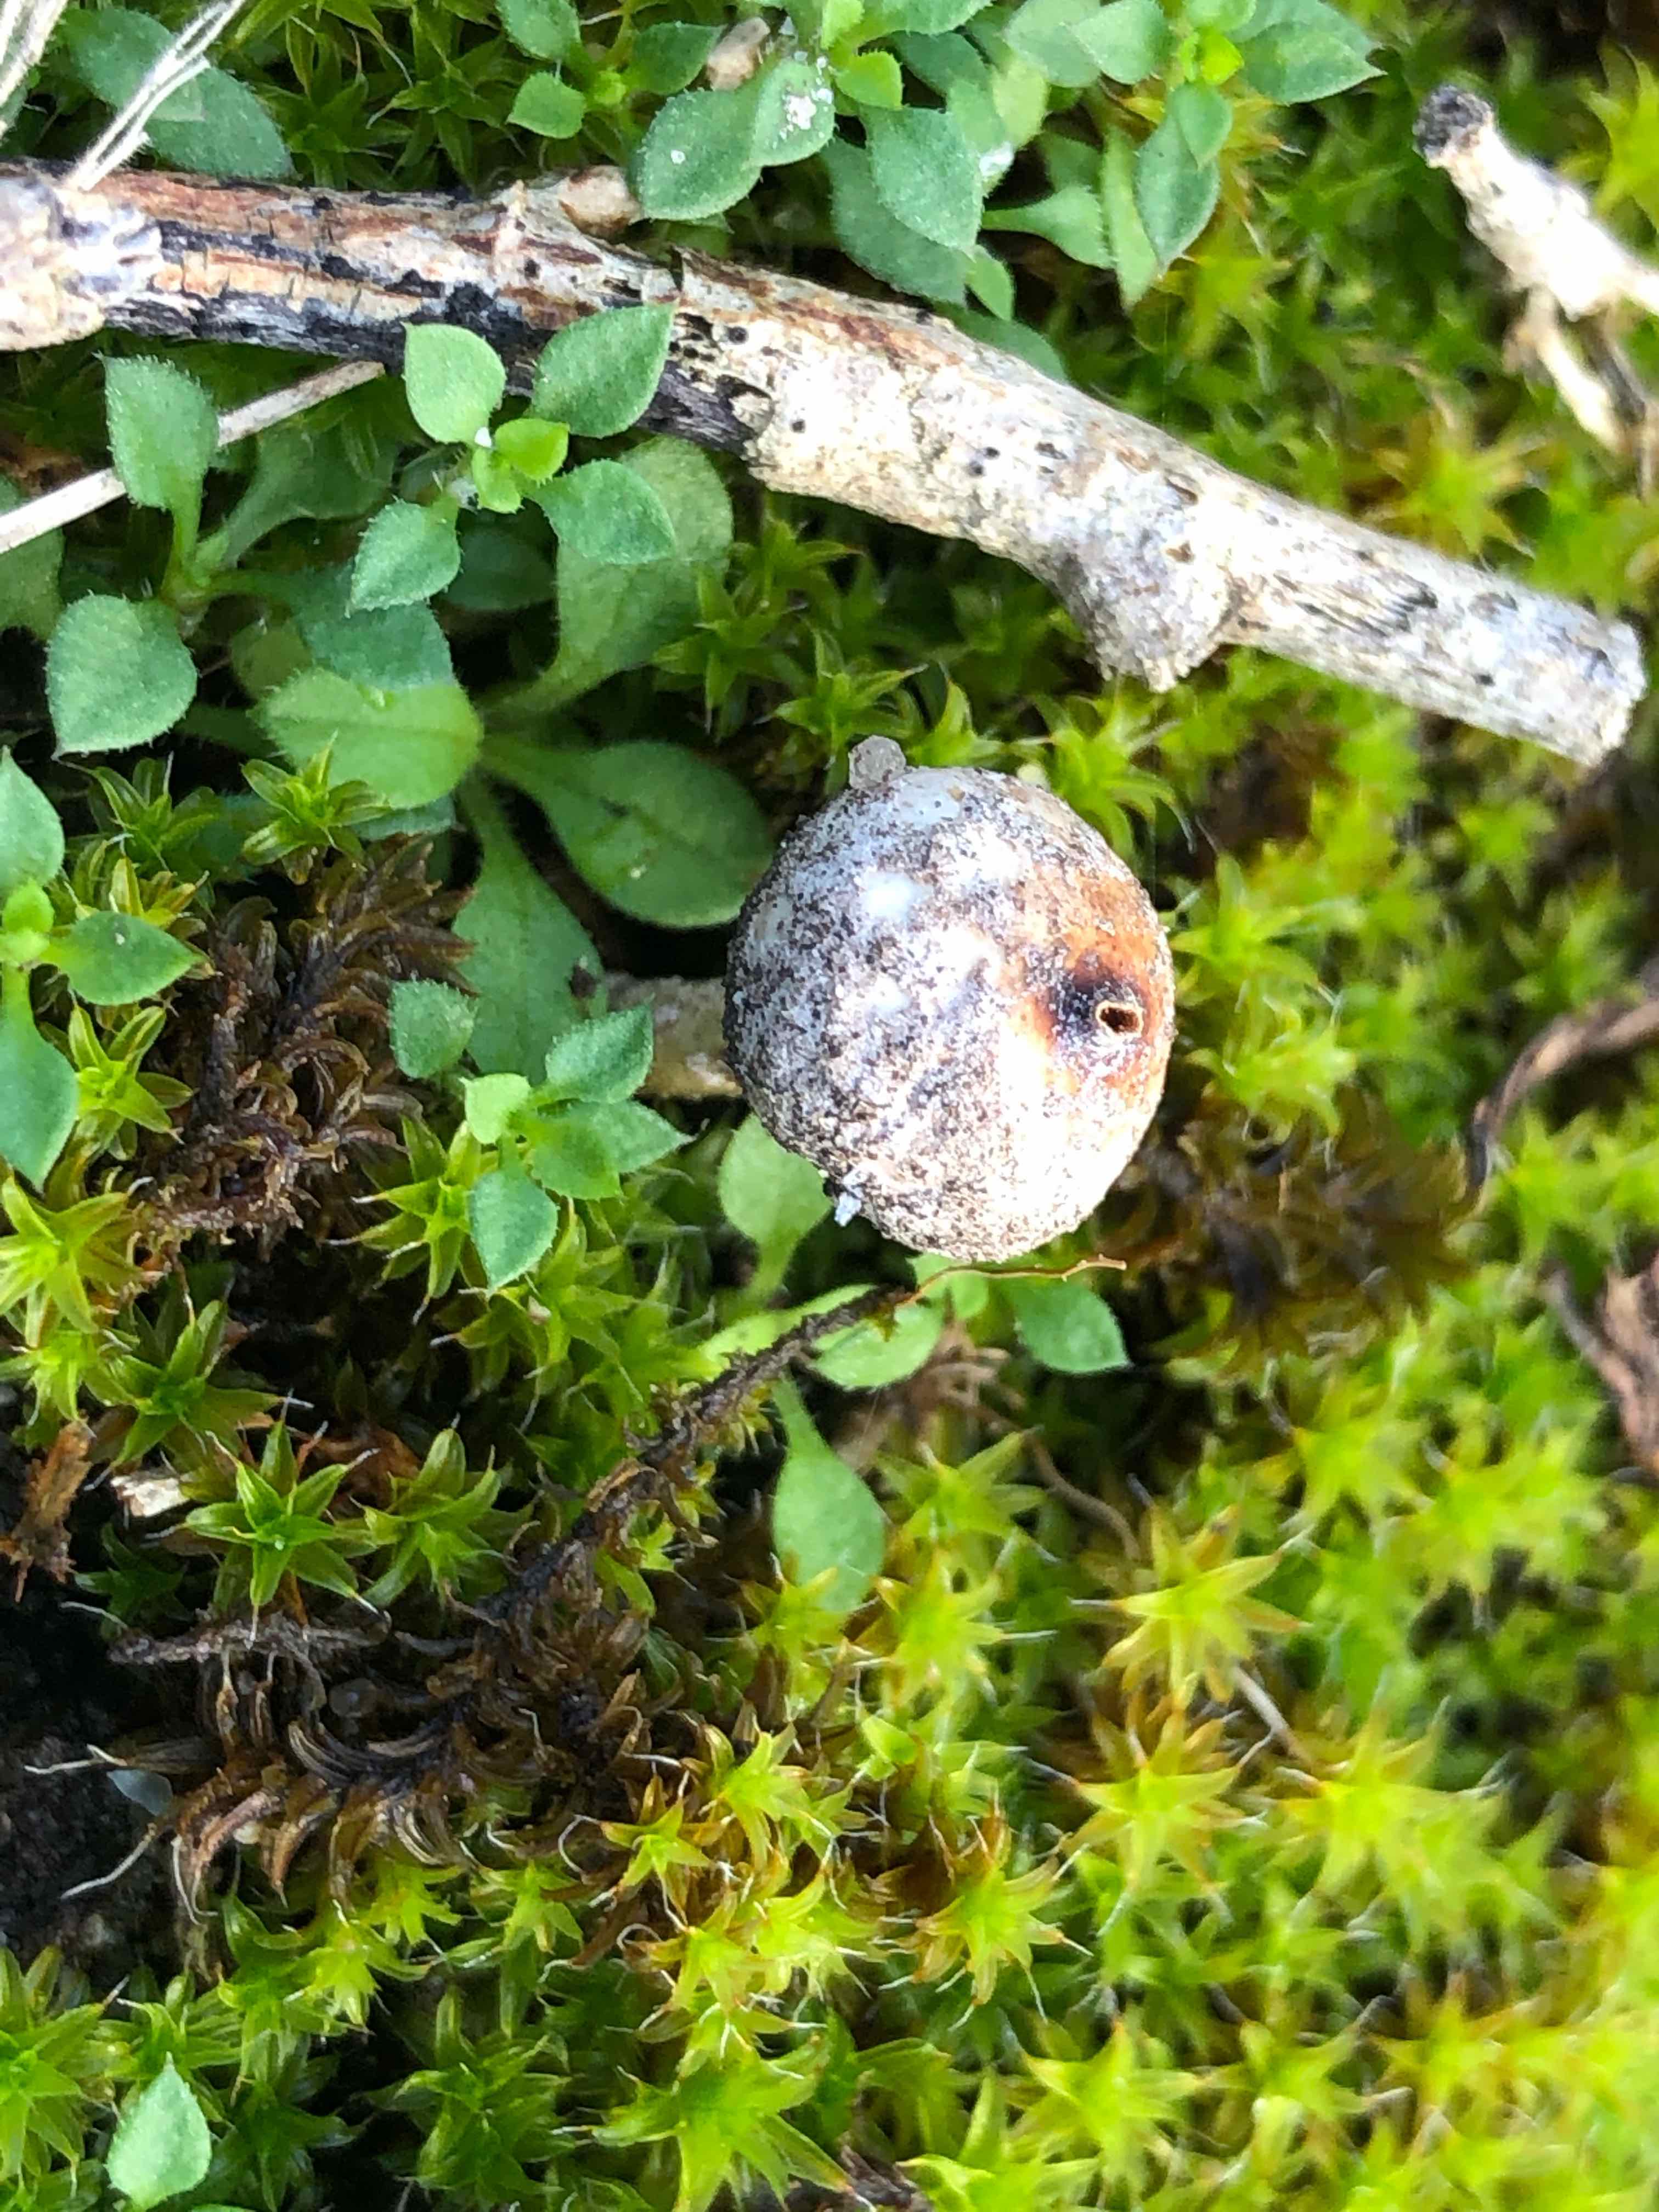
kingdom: Fungi
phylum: Basidiomycota
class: Agaricomycetes
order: Agaricales
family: Agaricaceae
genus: Tulostoma
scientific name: Tulostoma brumale
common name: vinter-stilkbovist
